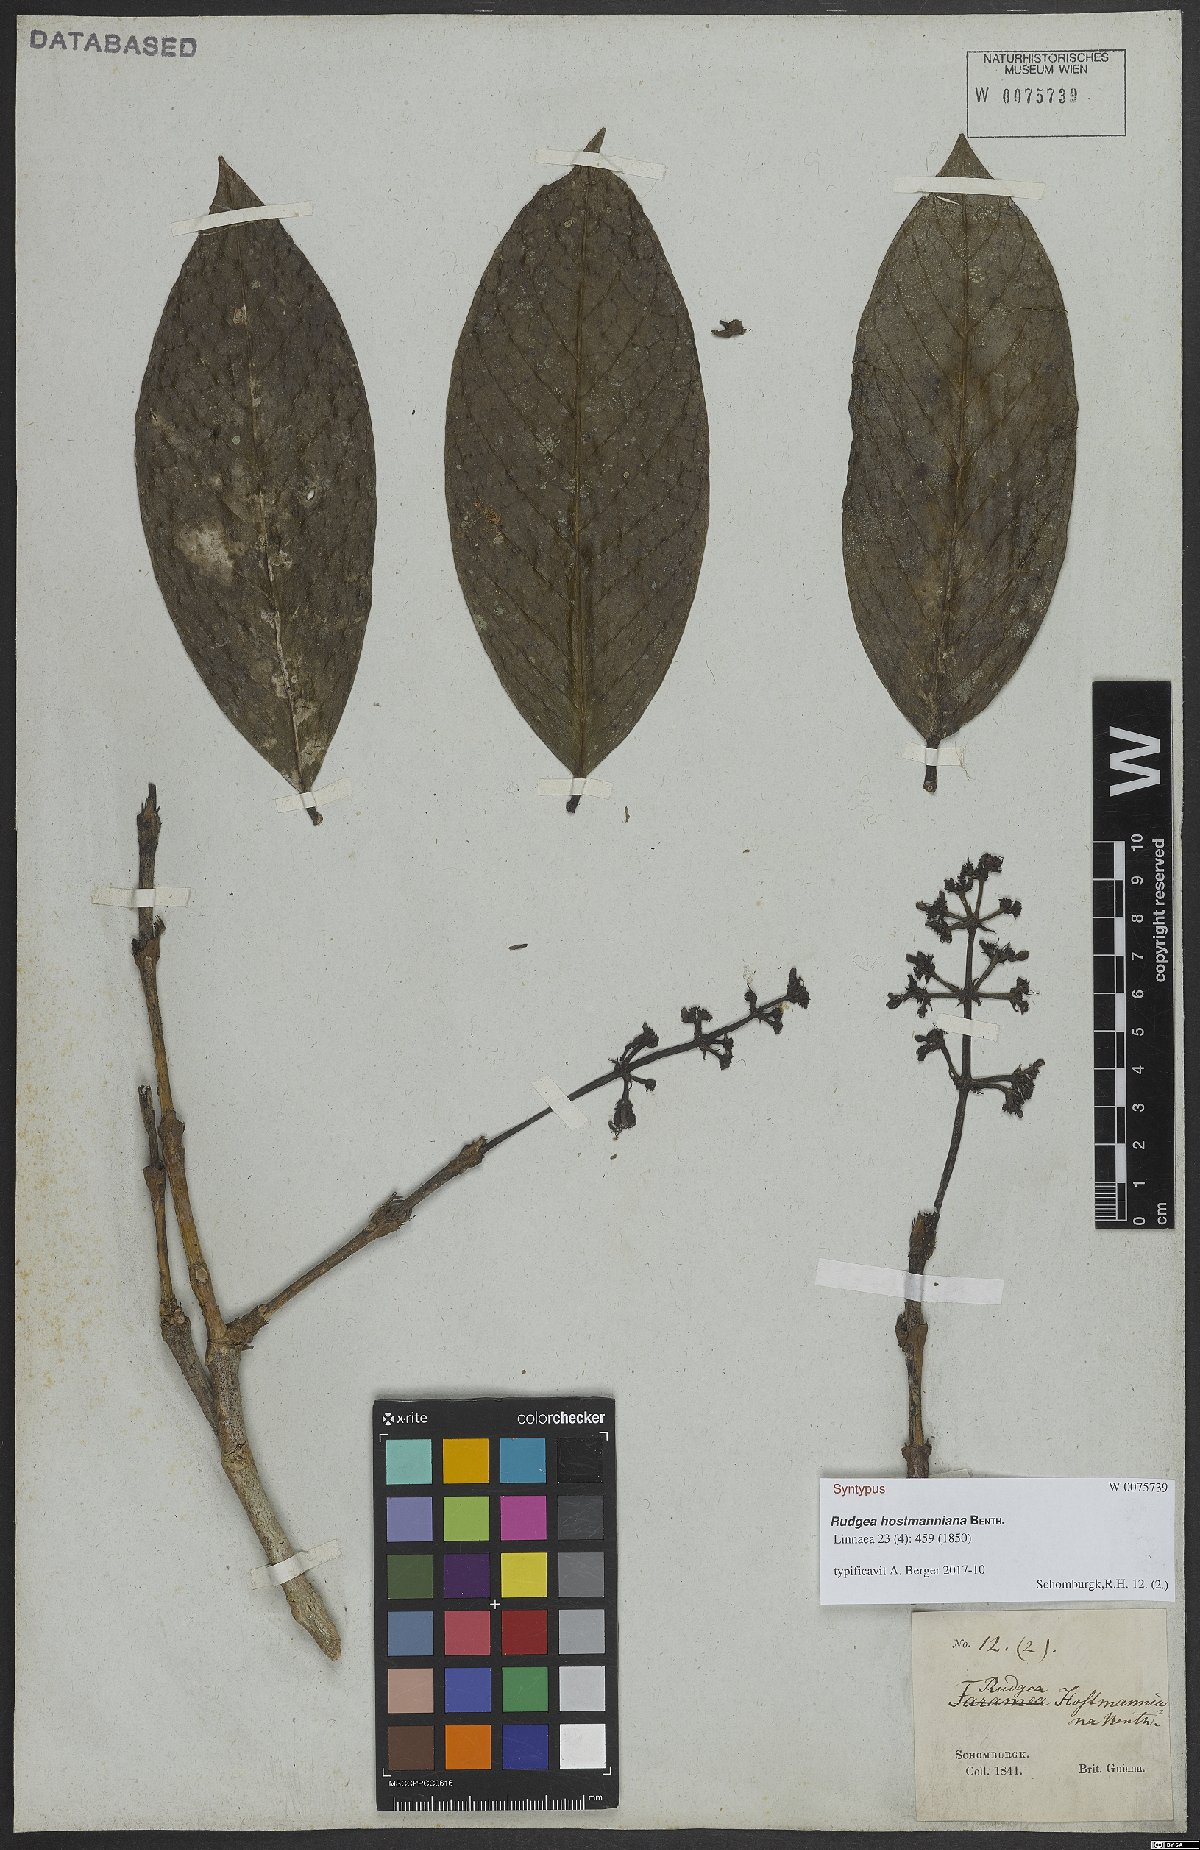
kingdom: Plantae
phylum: Tracheophyta
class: Magnoliopsida
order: Gentianales
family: Rubiaceae
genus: Rudgea
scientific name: Rudgea hostmanniana
